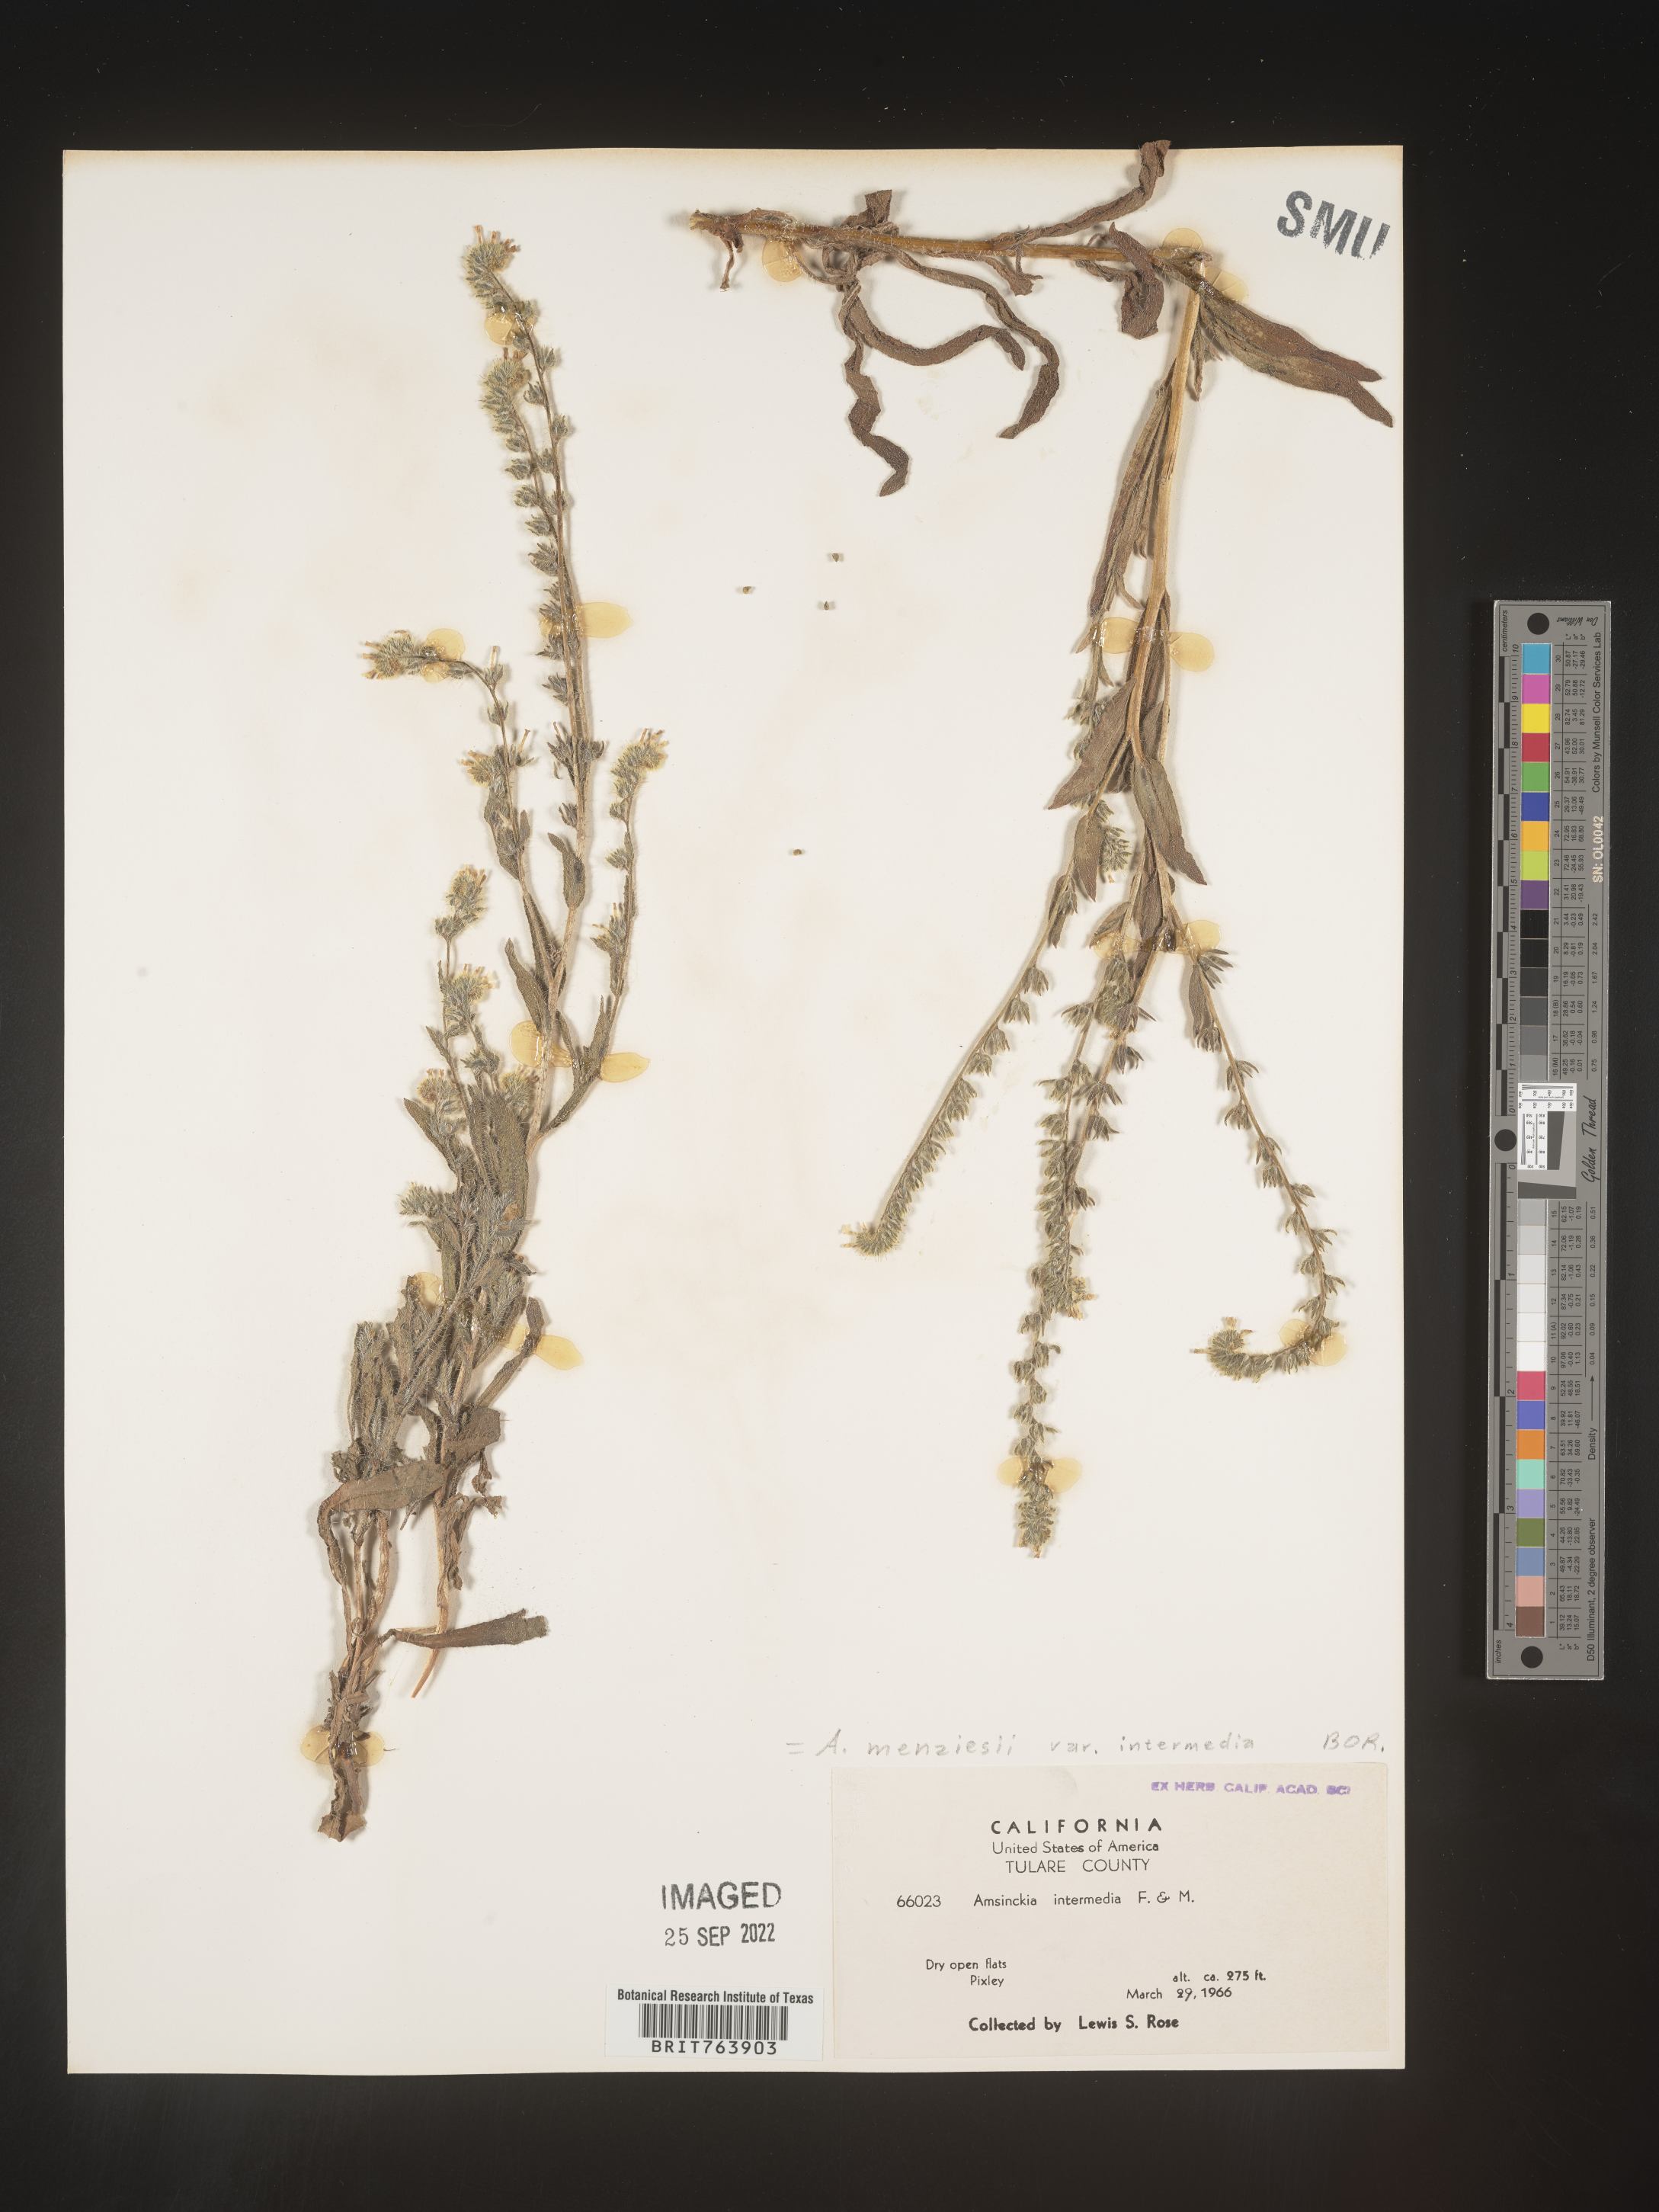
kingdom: Plantae
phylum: Tracheophyta
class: Magnoliopsida
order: Boraginales
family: Boraginaceae
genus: Amsinckia
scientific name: Amsinckia menziesii
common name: Menzies' fiddleneck
